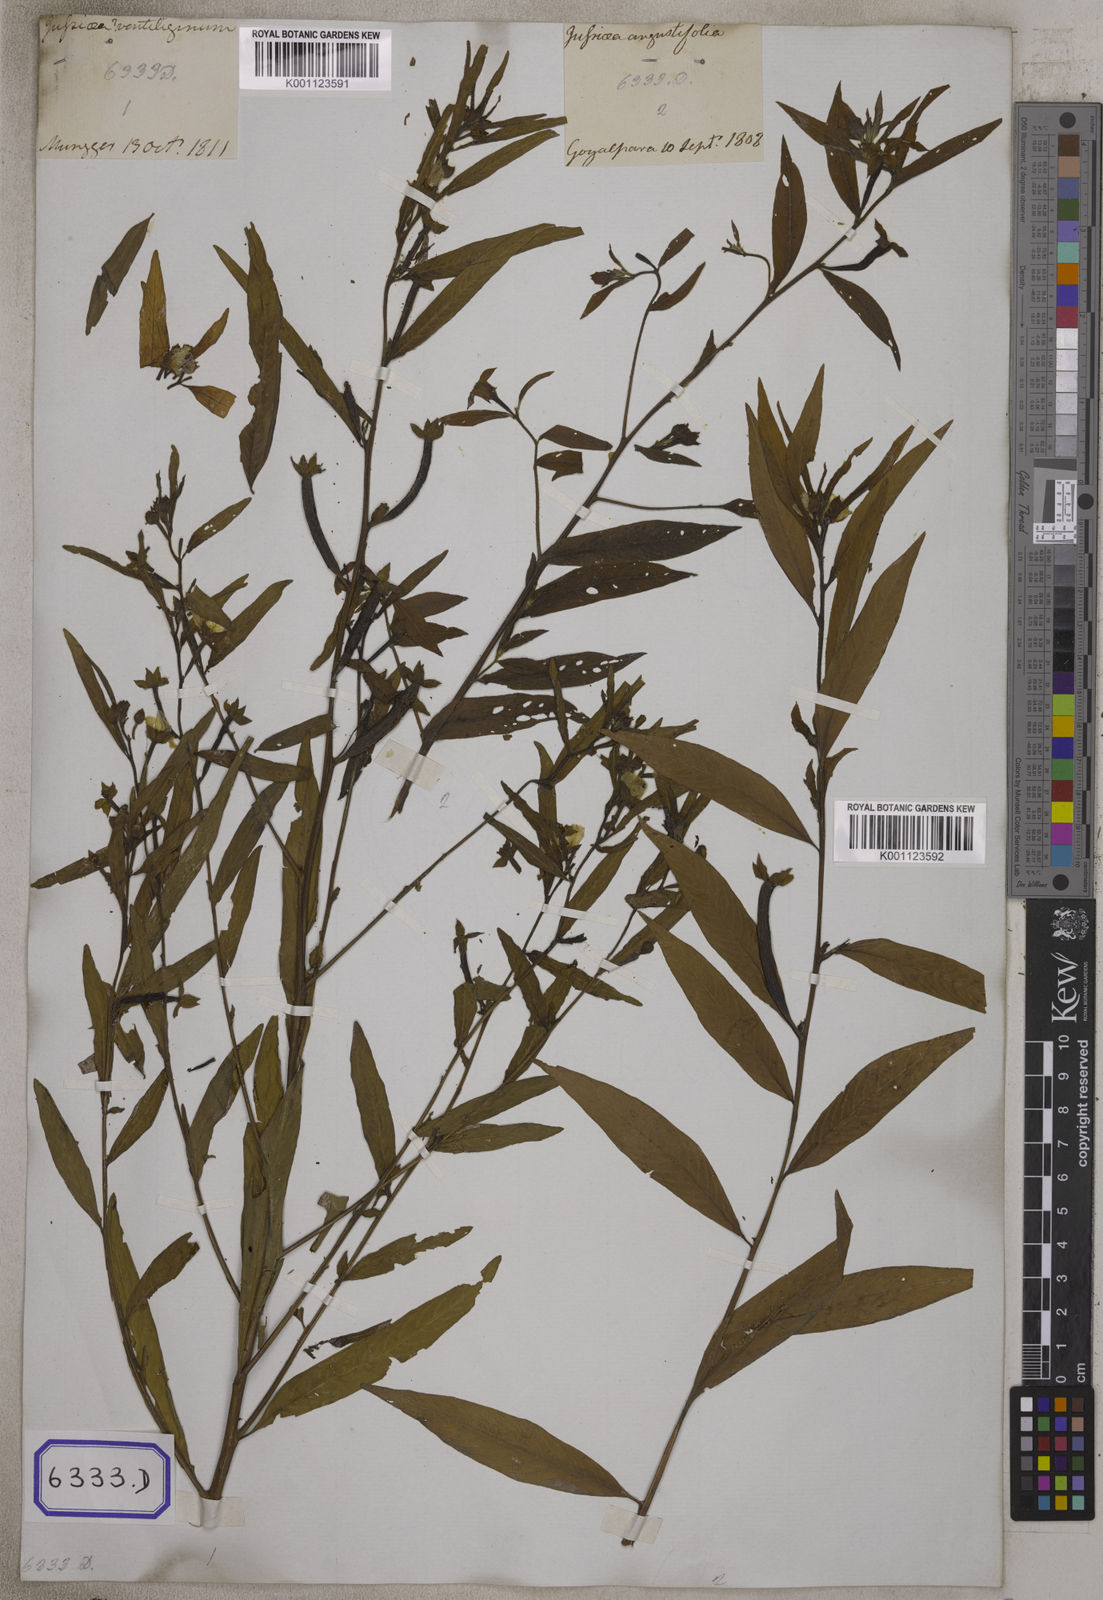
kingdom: Plantae
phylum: Tracheophyta
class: Magnoliopsida
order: Myrtales
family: Onagraceae
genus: Ludwigia
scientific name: Ludwigia octovalvis
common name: Water-primrose
